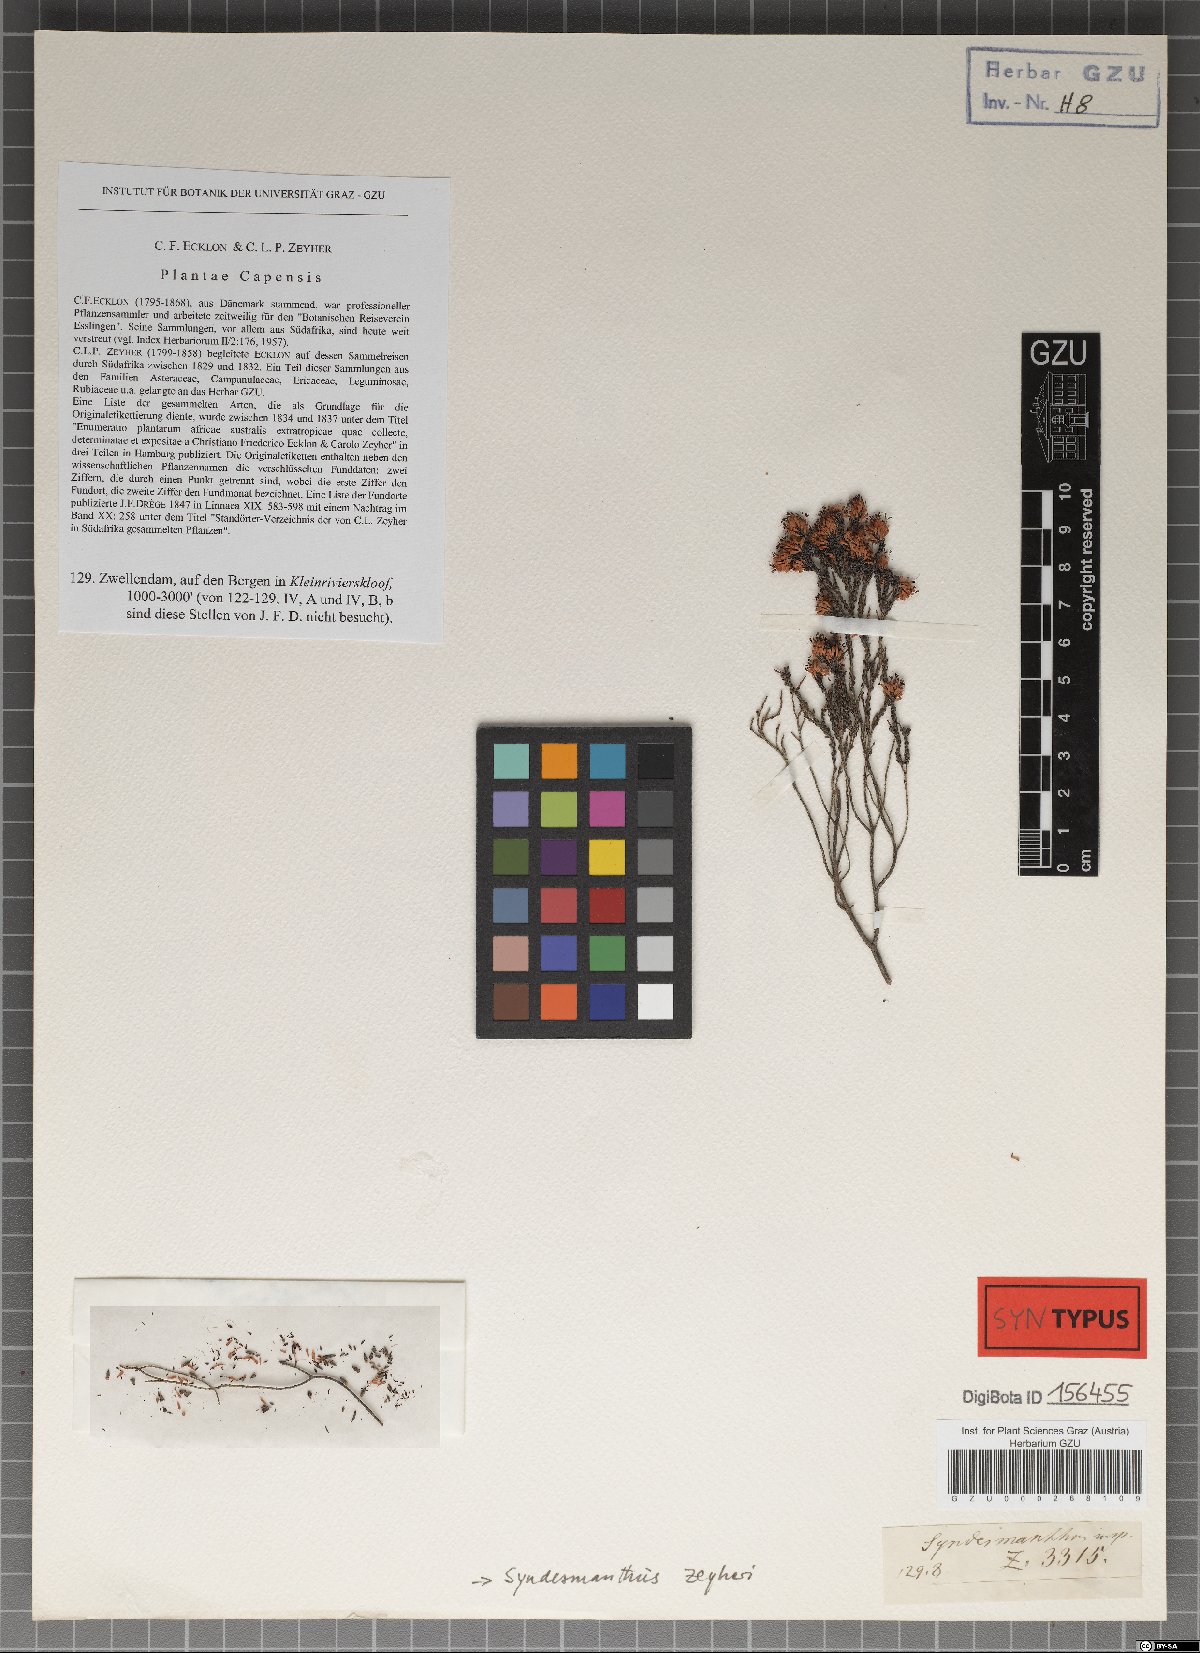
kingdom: Plantae
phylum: Tracheophyta
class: Magnoliopsida
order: Ericales
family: Ericaceae
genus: Erica
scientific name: Erica globiceps
